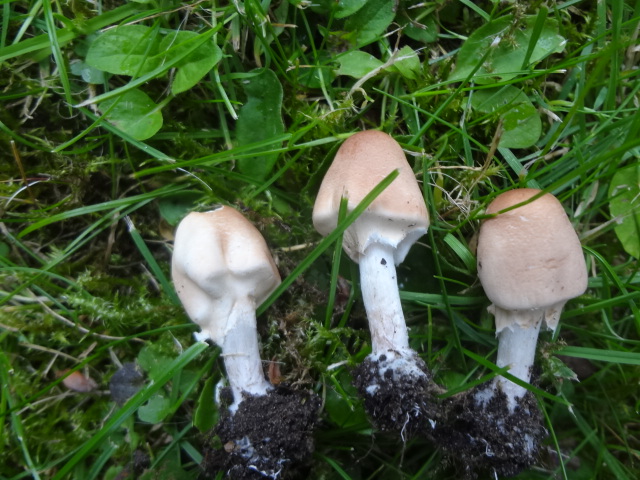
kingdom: Fungi
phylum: Basidiomycota
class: Agaricomycetes
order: Agaricales
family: Agaricaceae
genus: Lepiota
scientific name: Lepiota cristata
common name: stinkende parasolhat
